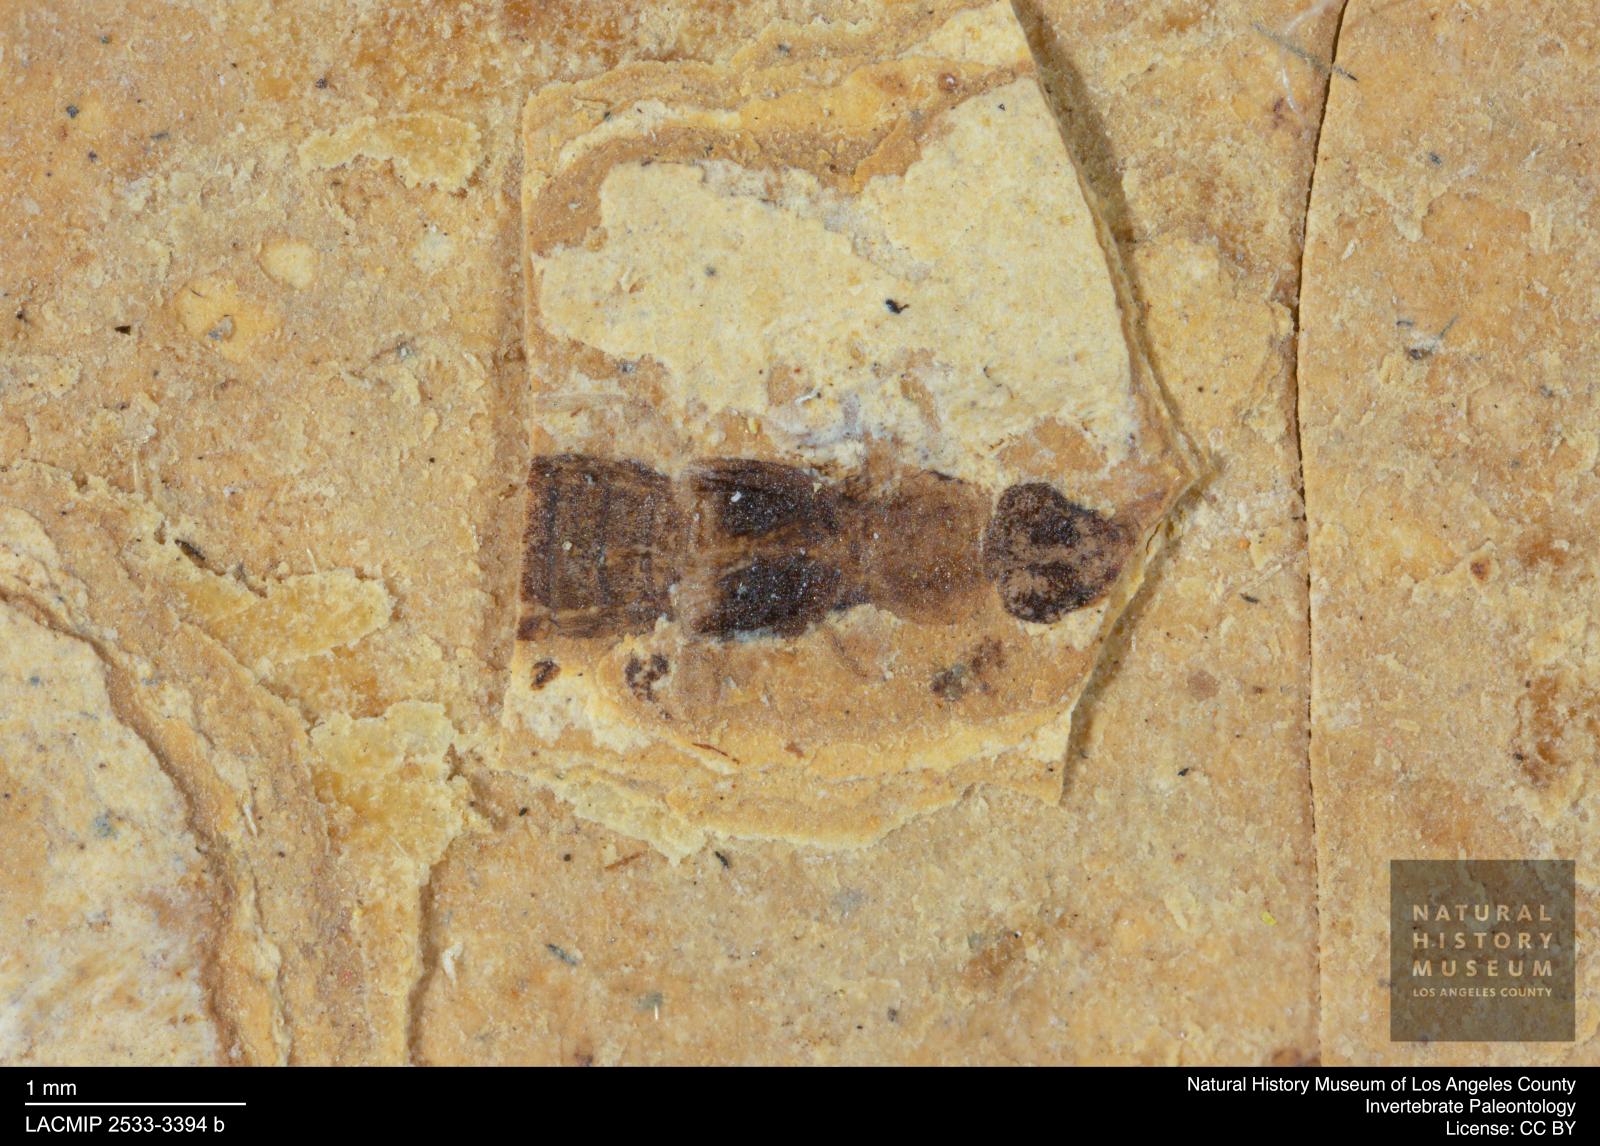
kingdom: Animalia
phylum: Arthropoda
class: Insecta
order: Coleoptera
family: Staphylinidae
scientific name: Staphylinidae
